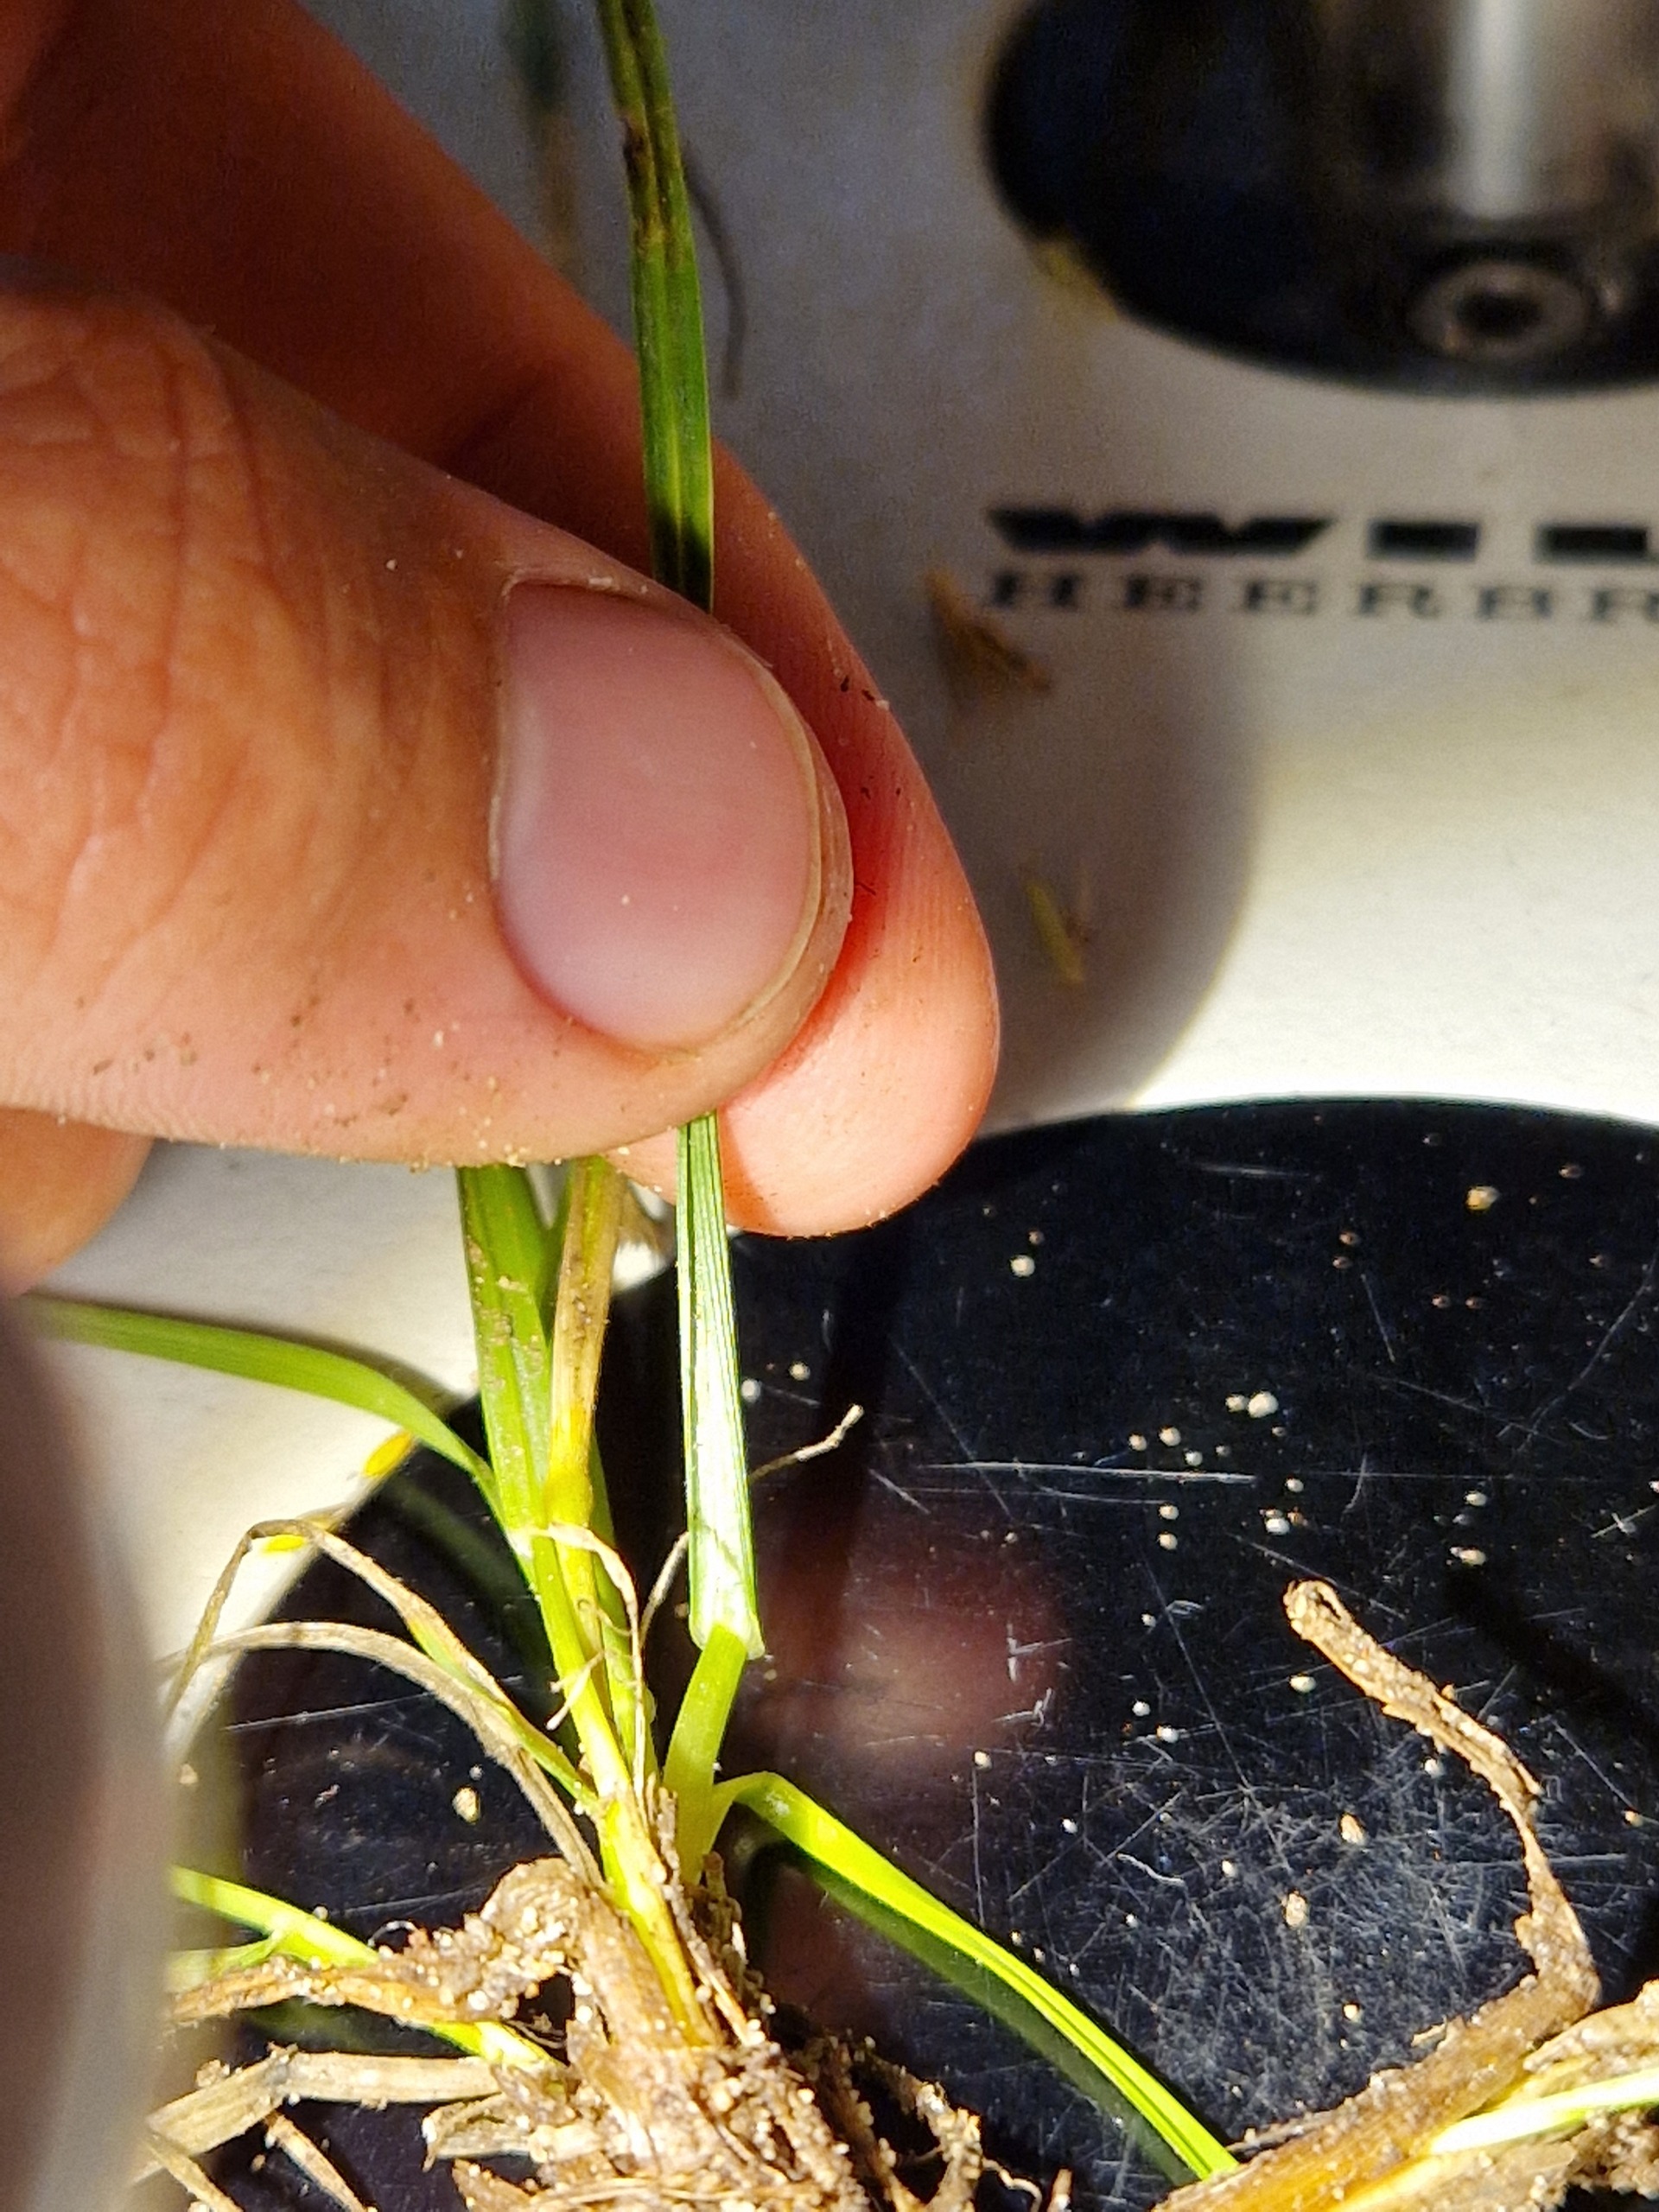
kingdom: Plantae
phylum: Tracheophyta
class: Liliopsida
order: Poales
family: Poaceae
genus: Lolium
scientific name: Lolium perenne
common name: Almindelig rajgræs
